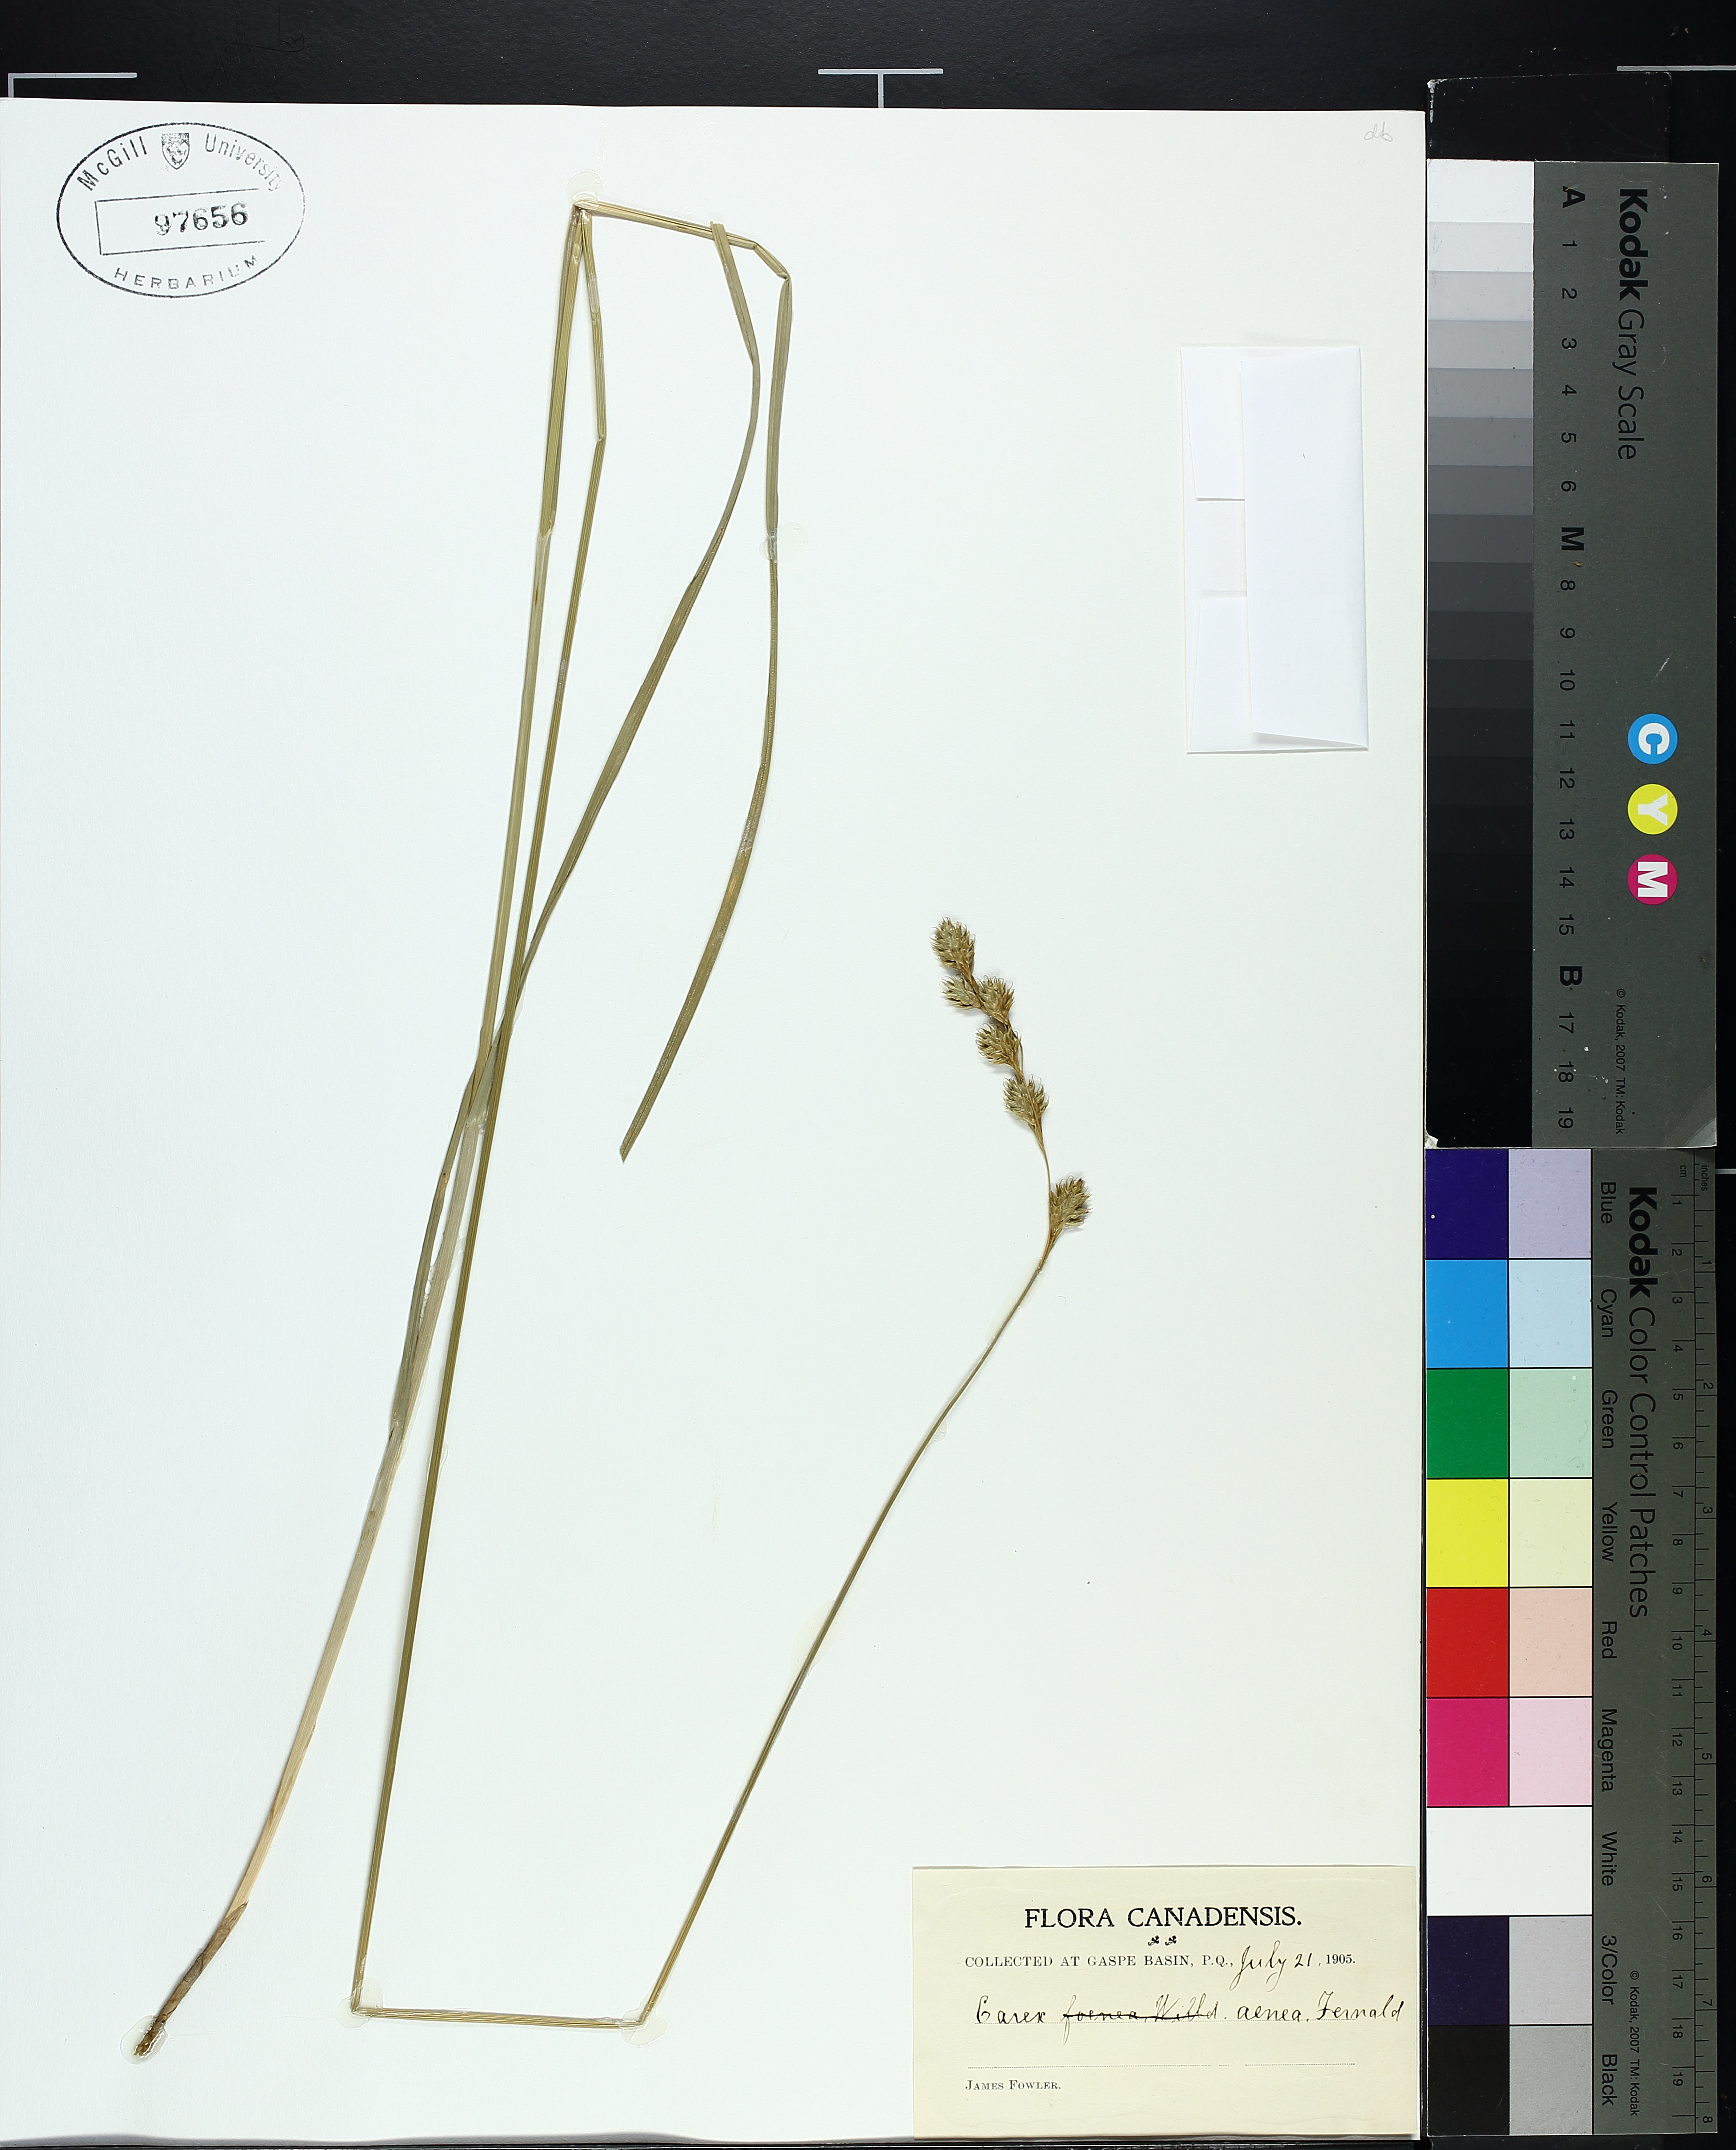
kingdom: Plantae
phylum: Tracheophyta
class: Liliopsida
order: Poales
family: Cyperaceae
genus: Carex
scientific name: Carex foenea
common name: Bronze sedge
